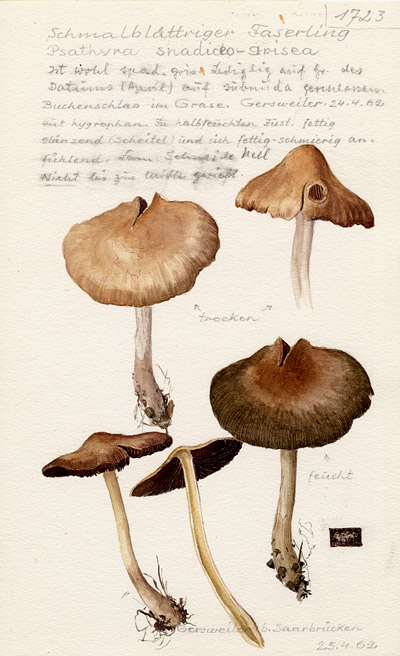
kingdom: Fungi
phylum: Basidiomycota
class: Agaricomycetes
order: Agaricales
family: Psathyrellaceae
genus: Psathyrella
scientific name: Psathyrella spadiceogrisea
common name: Spring brittlestem
